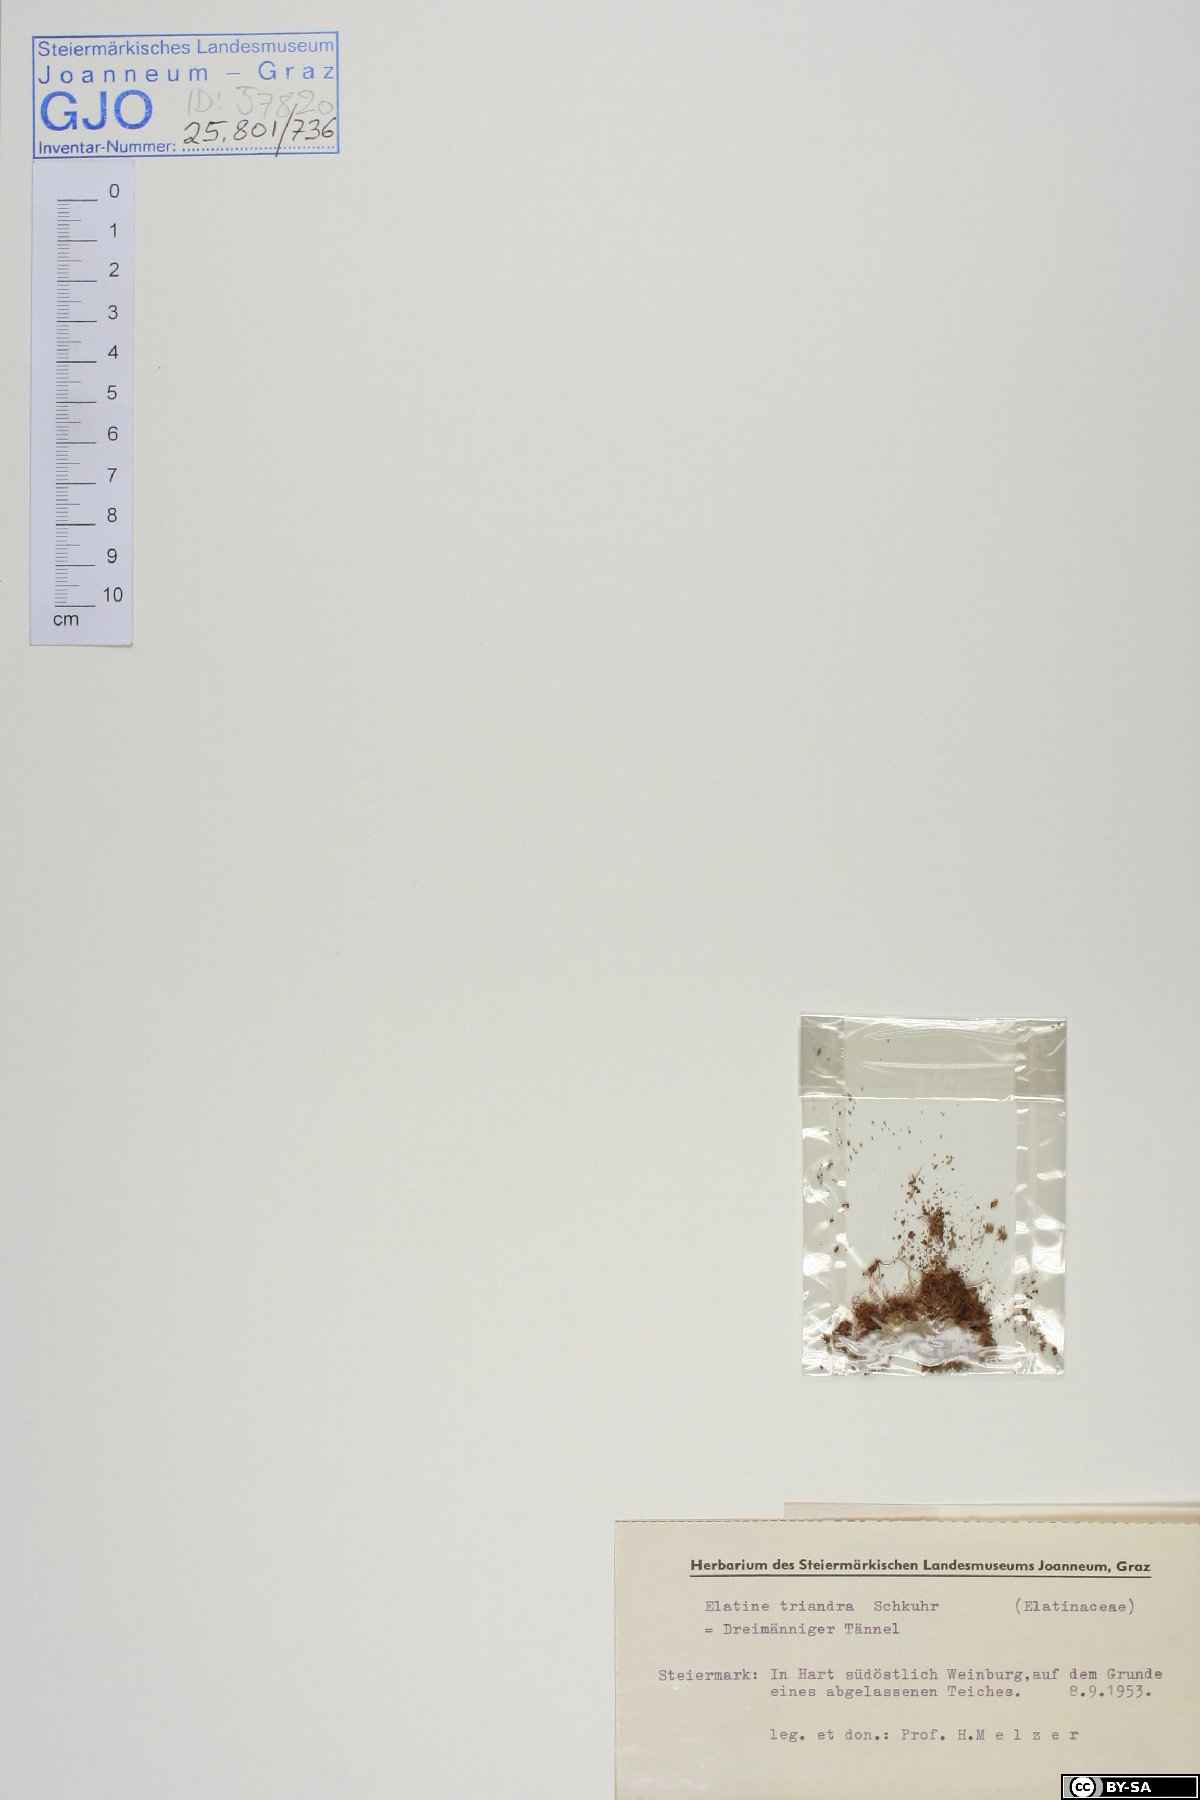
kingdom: Plantae
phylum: Tracheophyta
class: Magnoliopsida
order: Malpighiales
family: Elatinaceae
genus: Elatine
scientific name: Elatine triandra
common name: Three-stamened waterwort
